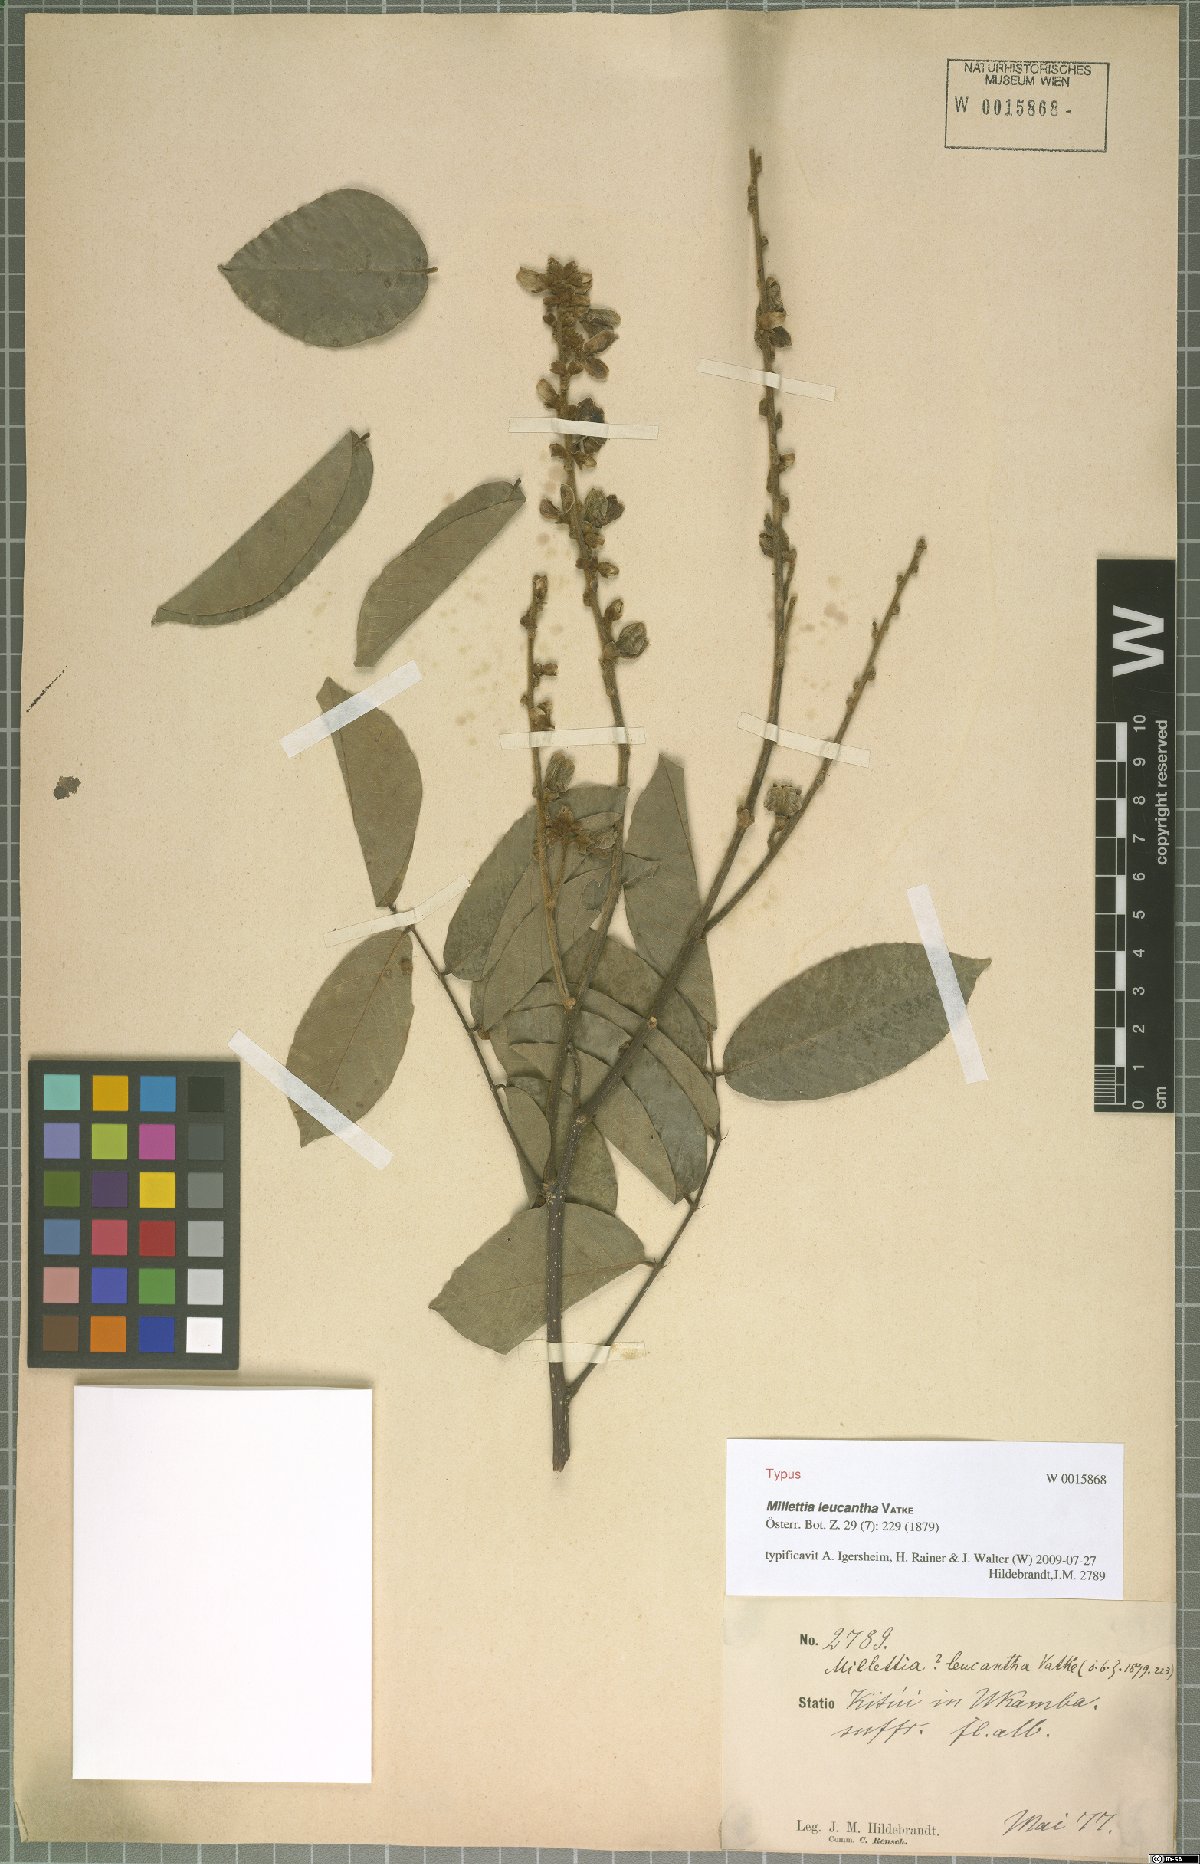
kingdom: Plantae
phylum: Tracheophyta
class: Magnoliopsida
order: Fabales
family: Fabaceae
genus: Millettia
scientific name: Millettia vatkei
